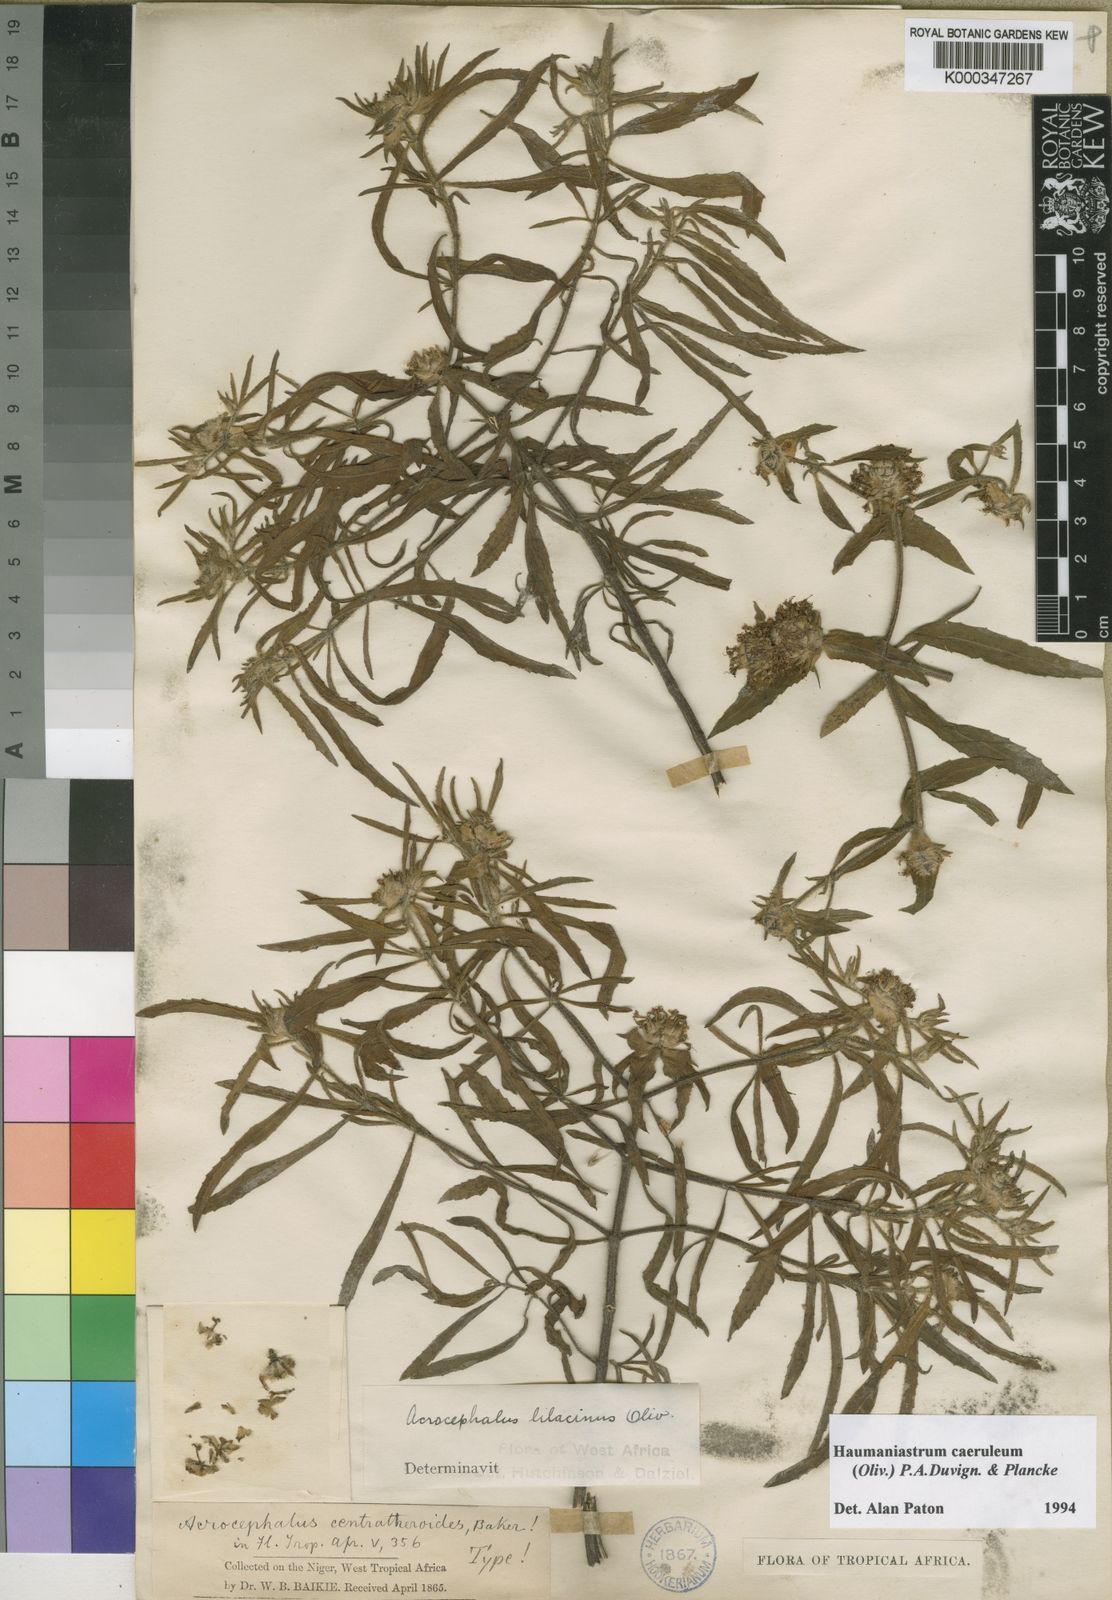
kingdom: Plantae
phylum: Tracheophyta
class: Magnoliopsida
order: Lamiales
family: Lamiaceae
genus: Haumaniastrum
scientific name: Haumaniastrum caeruleum
